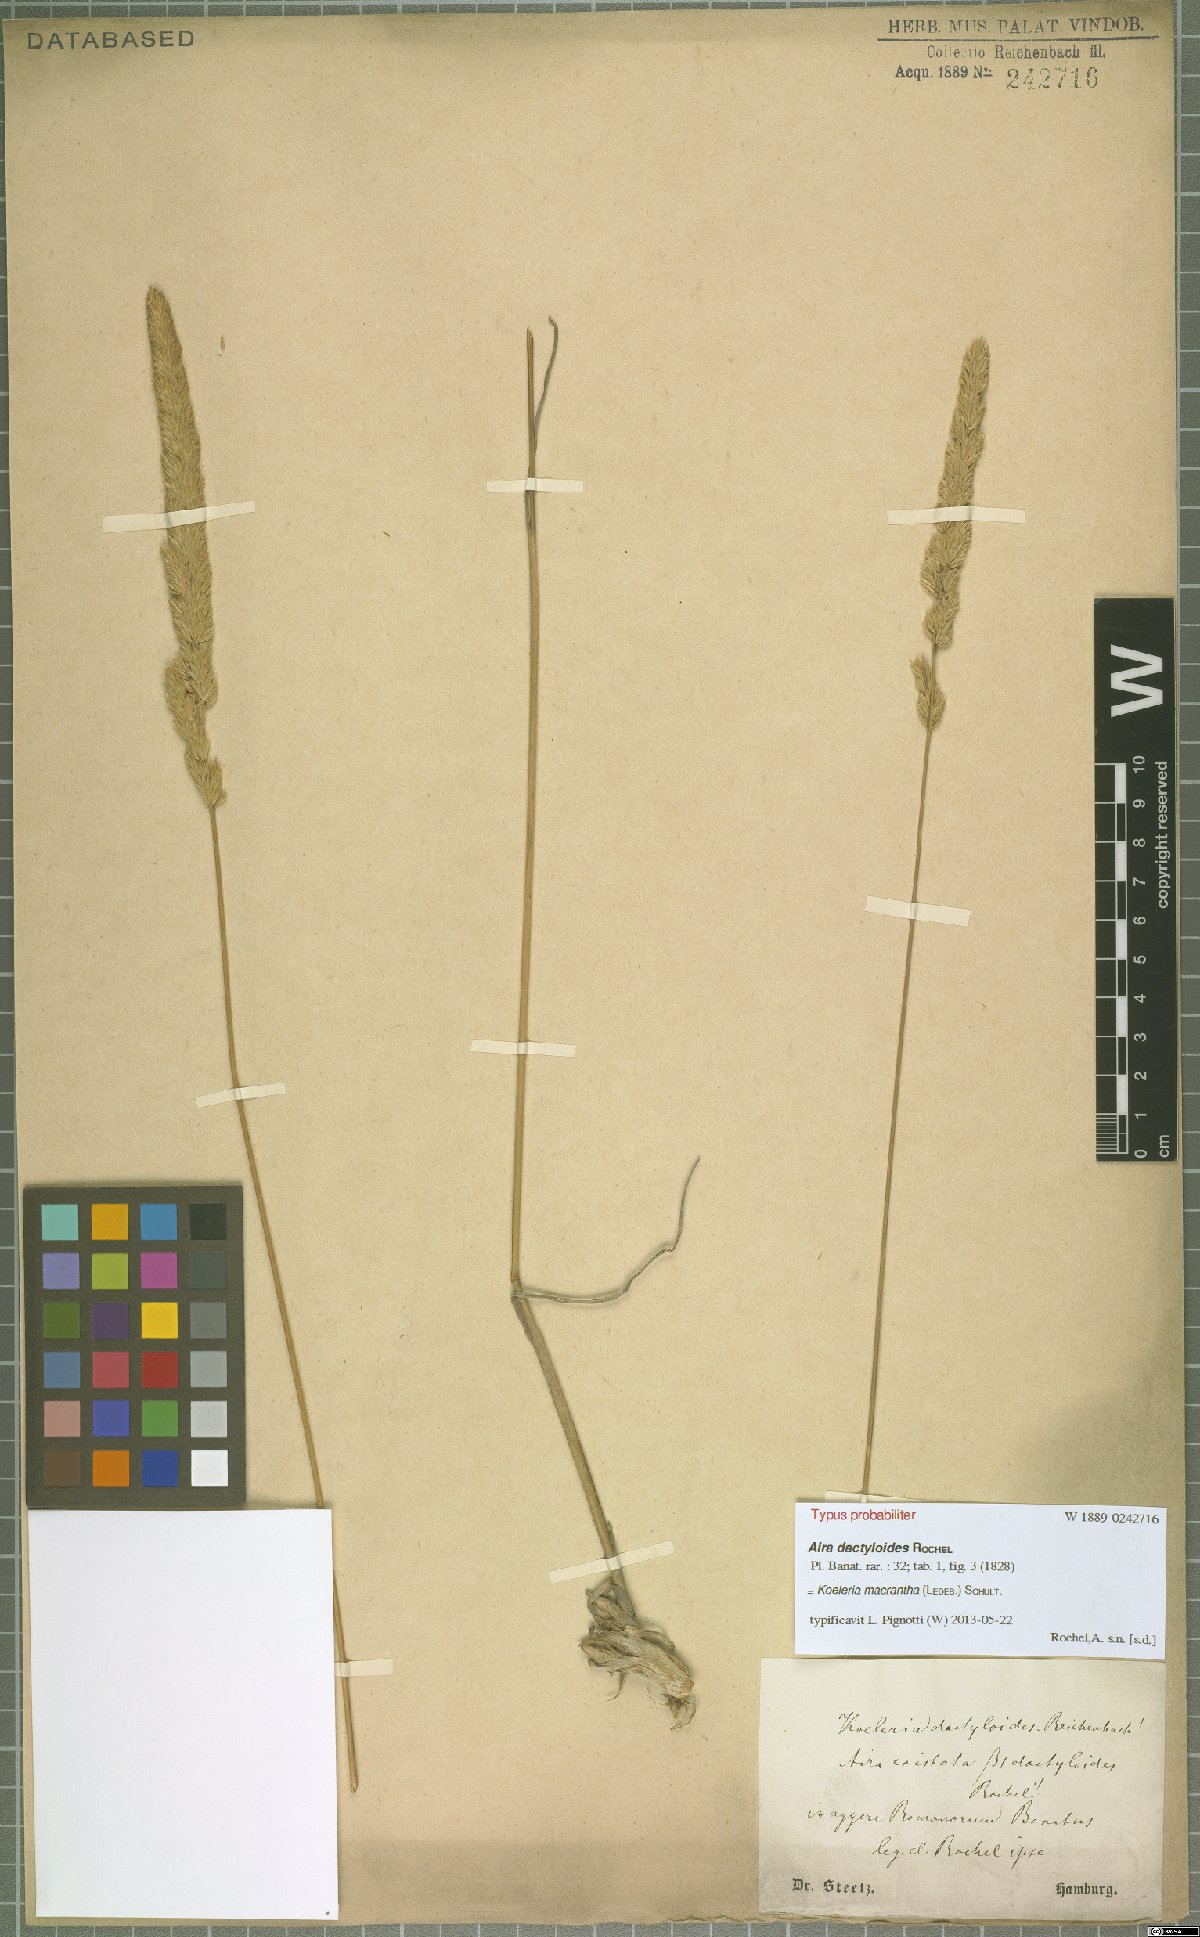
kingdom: Plantae
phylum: Tracheophyta
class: Liliopsida
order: Poales
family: Poaceae
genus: Koeleria
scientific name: Koeleria macrantha
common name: Crested hair-grass
